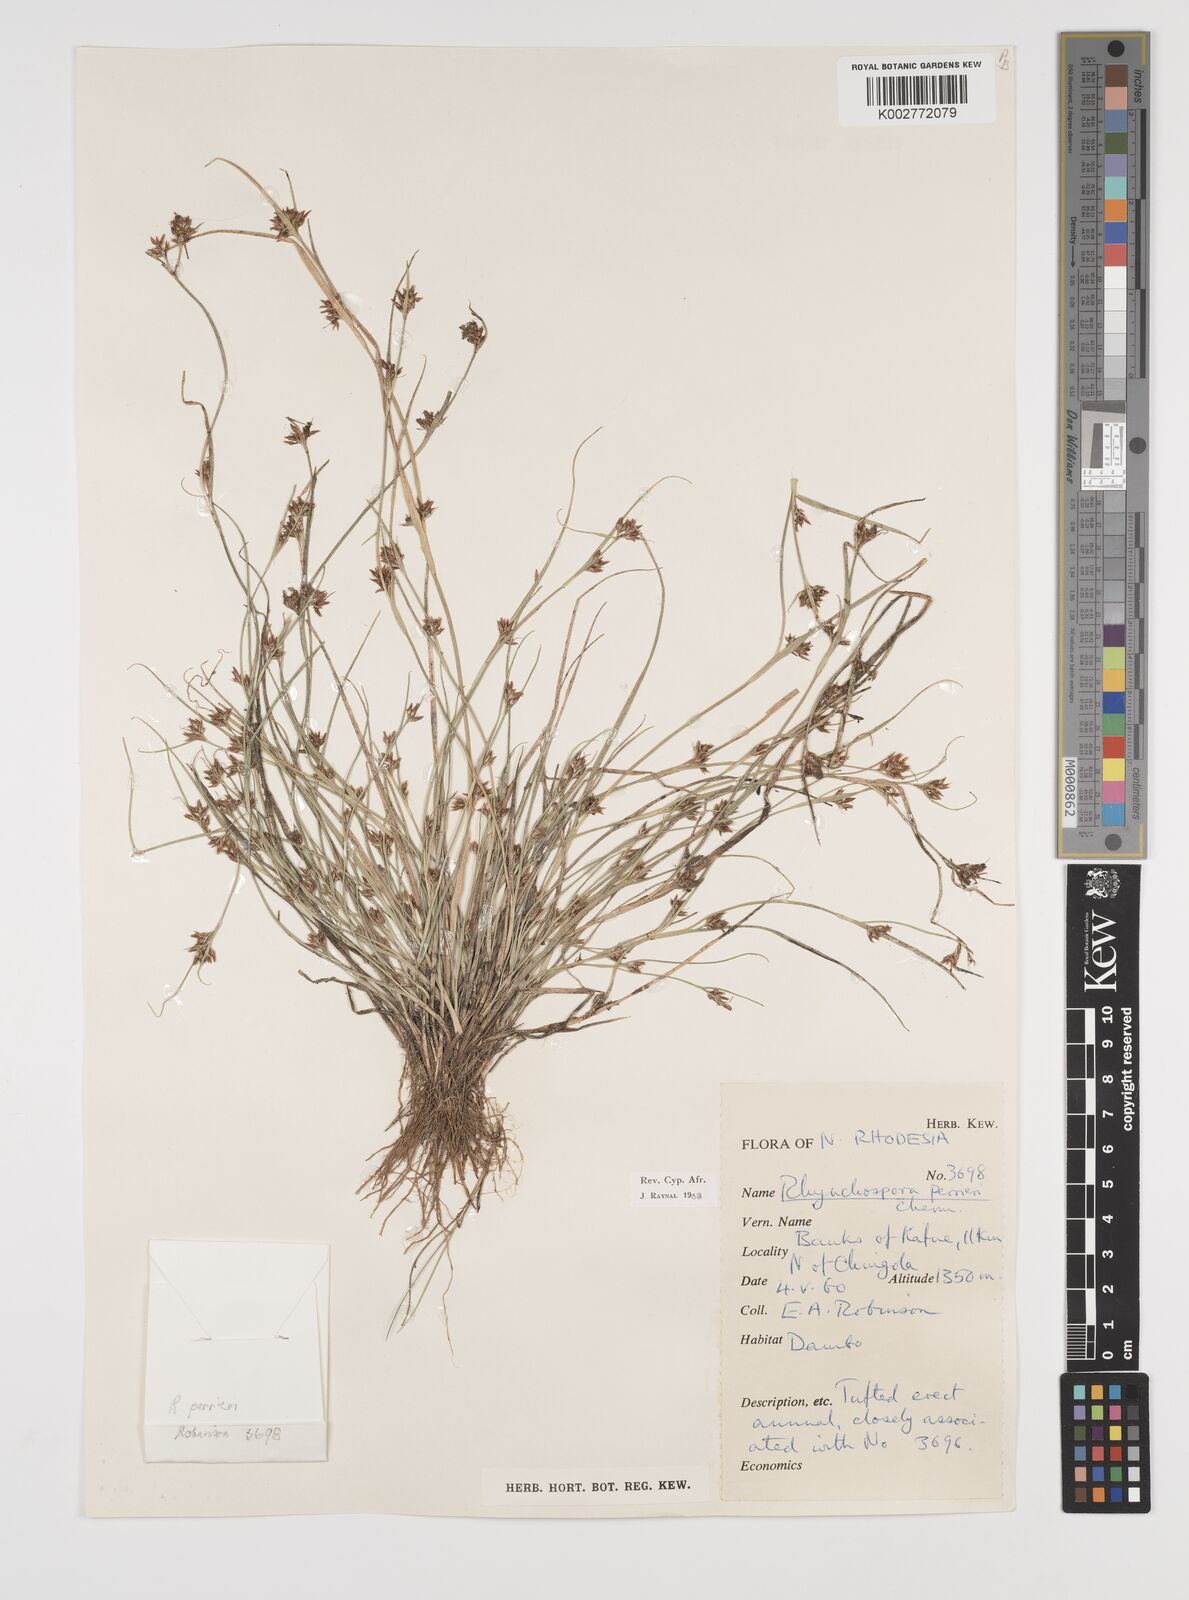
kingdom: Plantae
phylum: Tracheophyta
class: Liliopsida
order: Poales
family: Cyperaceae
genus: Rhynchospora
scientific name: Rhynchospora perrieri
